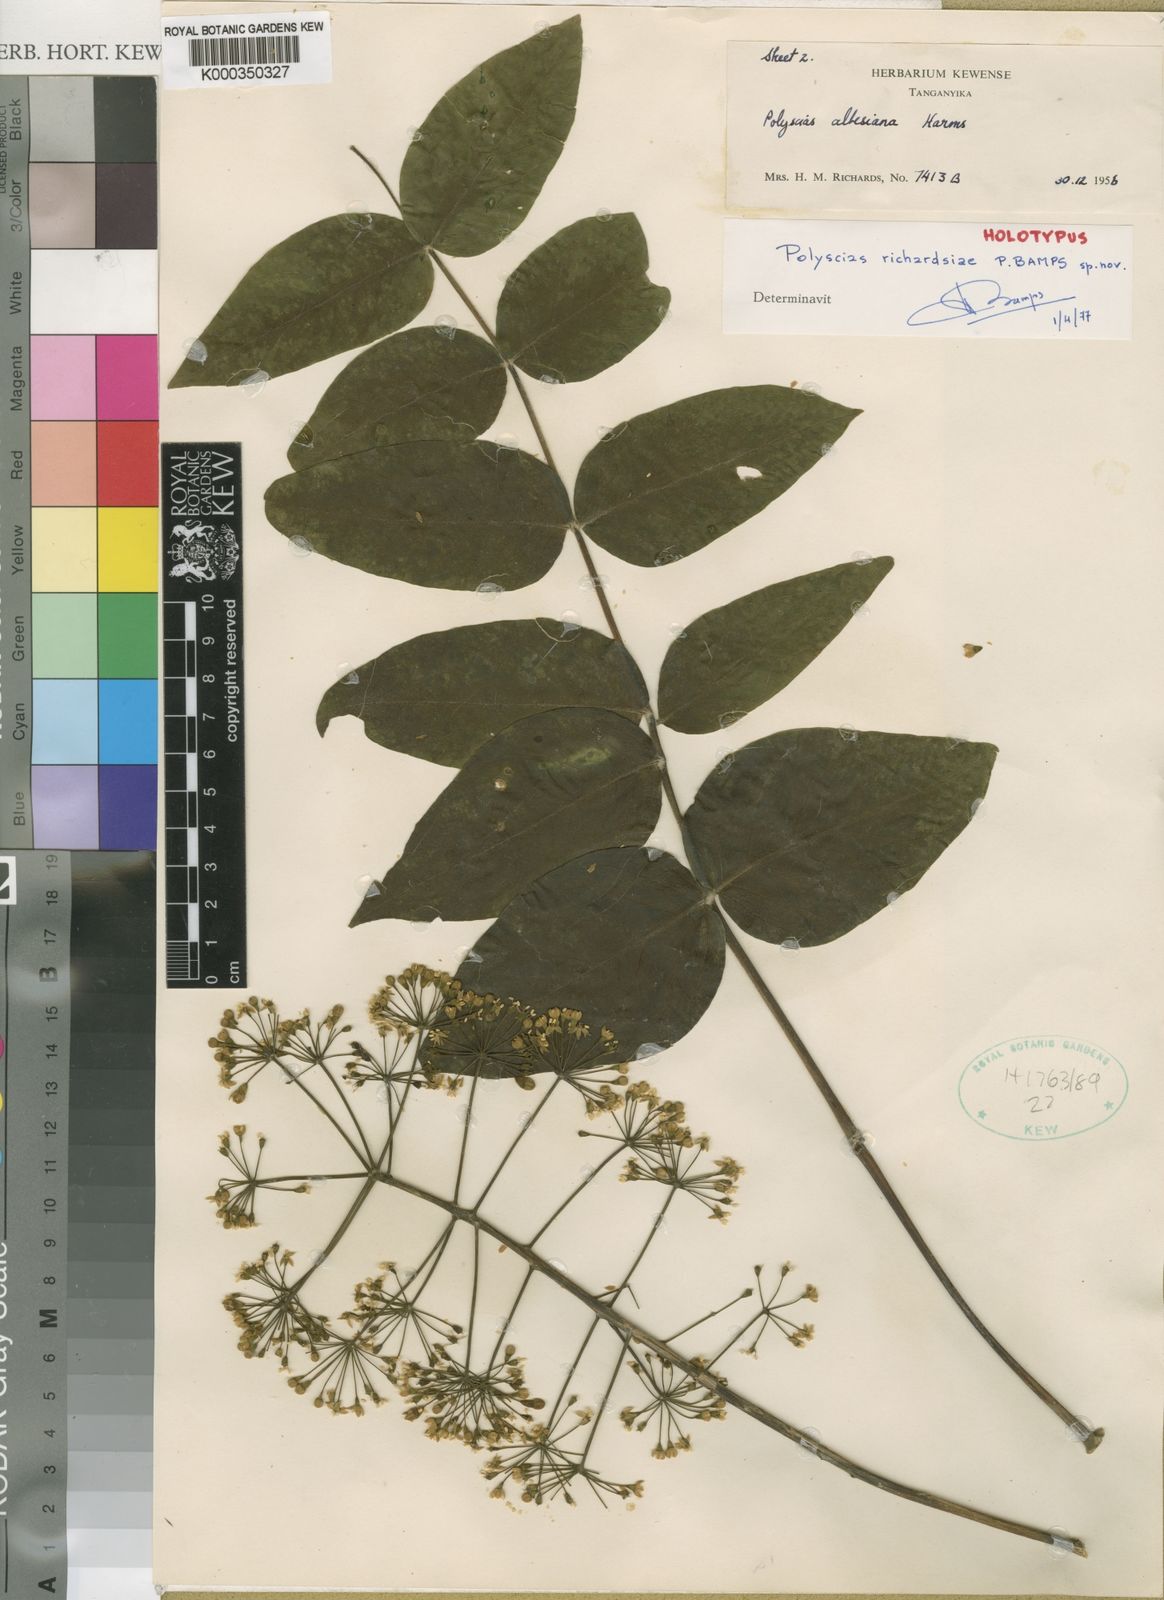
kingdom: Plantae
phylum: Tracheophyta
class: Magnoliopsida
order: Apiales
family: Araliaceae
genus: Polyscias
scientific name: Polyscias richardsiae
